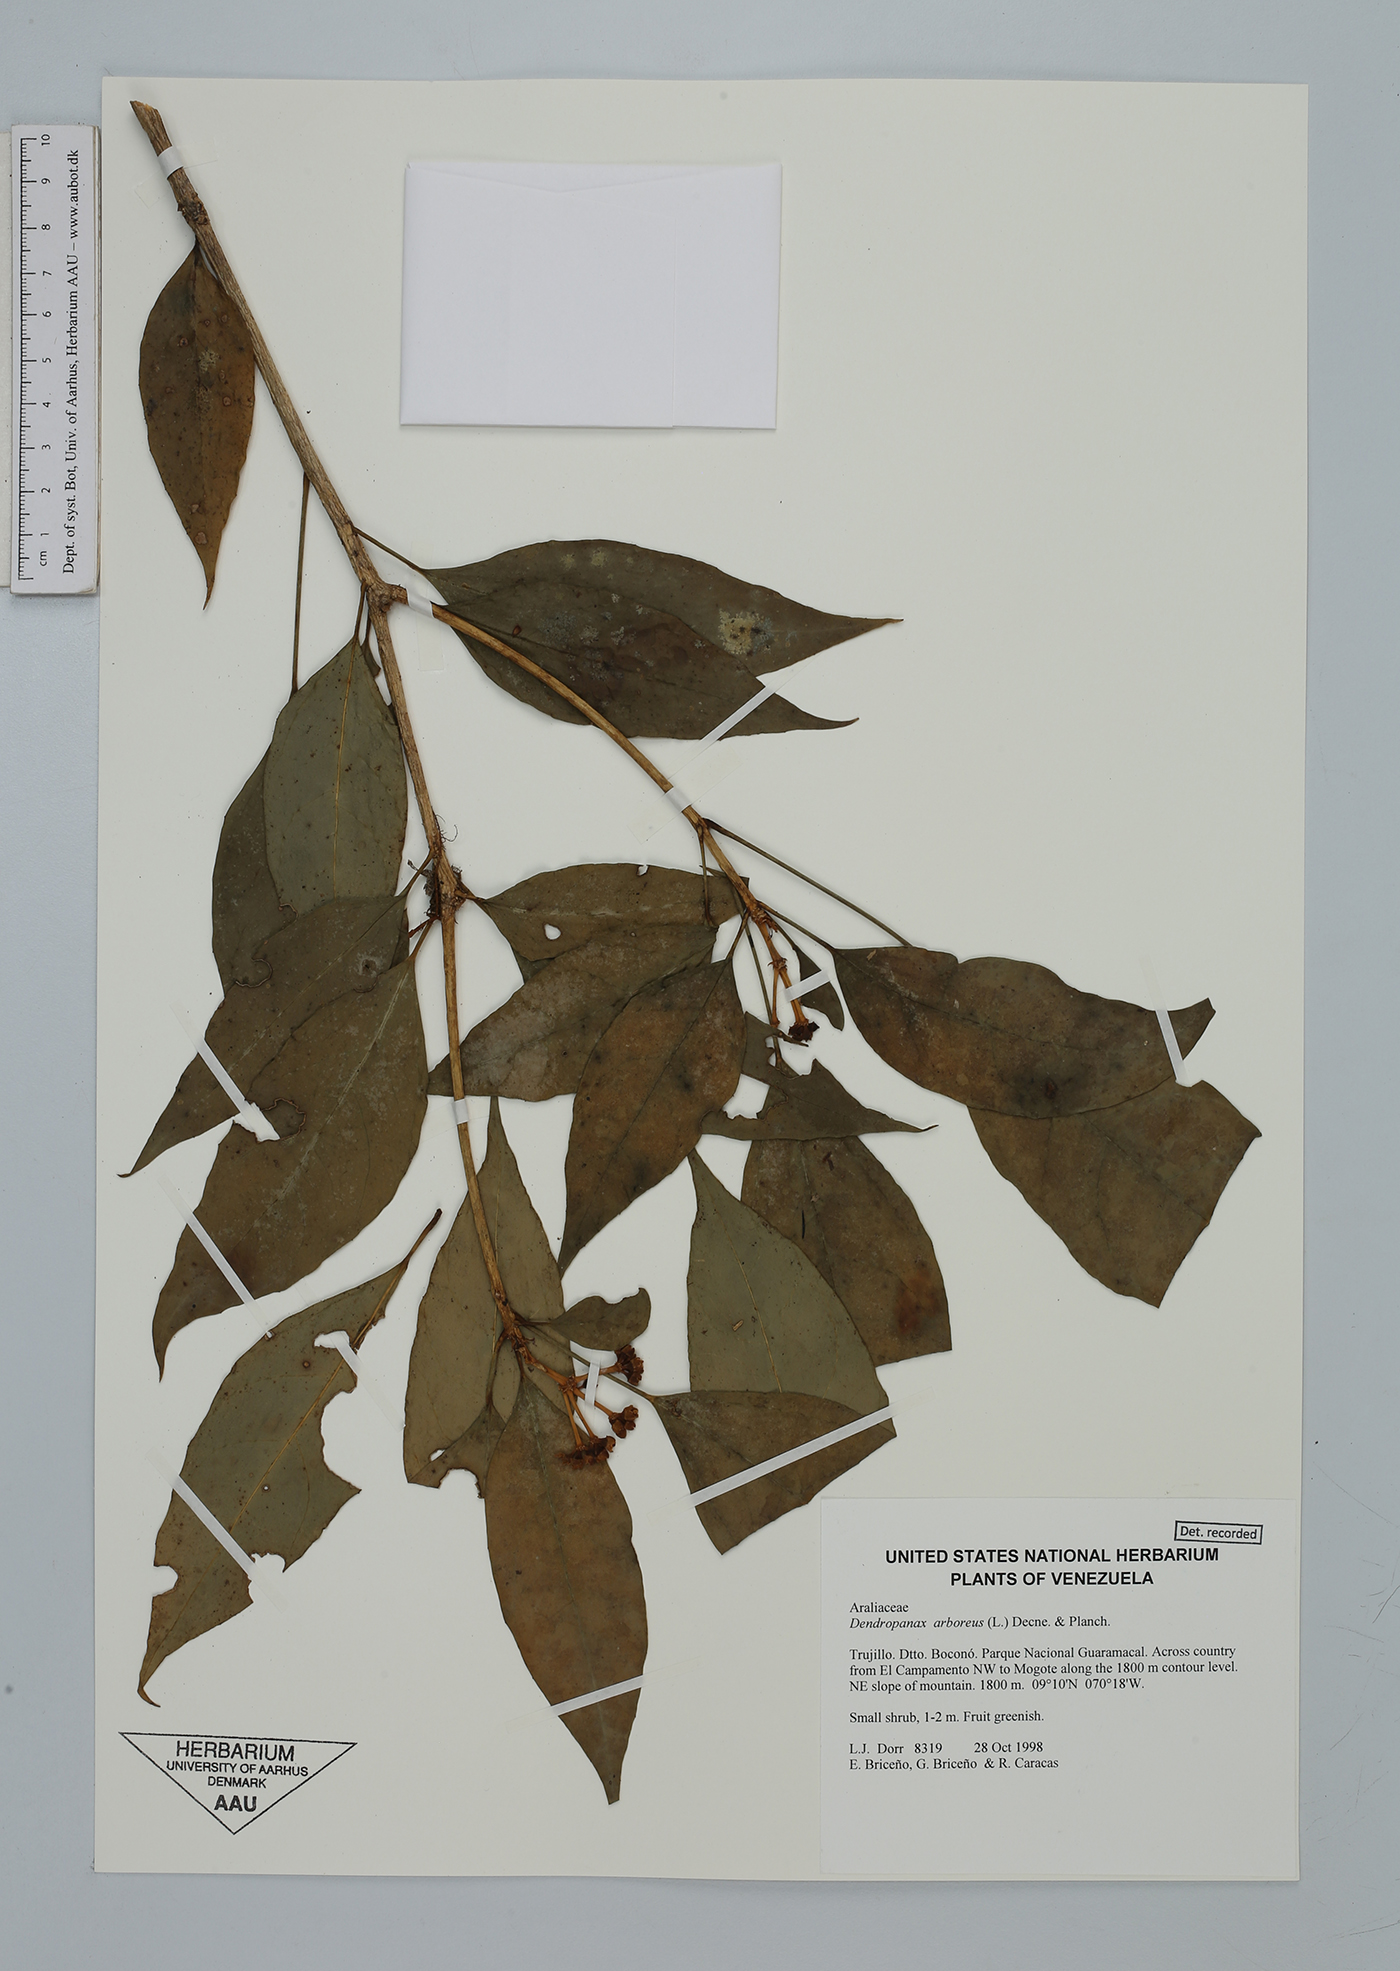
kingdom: Plantae
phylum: Tracheophyta
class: Magnoliopsida
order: Apiales
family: Araliaceae
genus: Dendropanax
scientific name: Dendropanax arboreus
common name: Potato-wood
